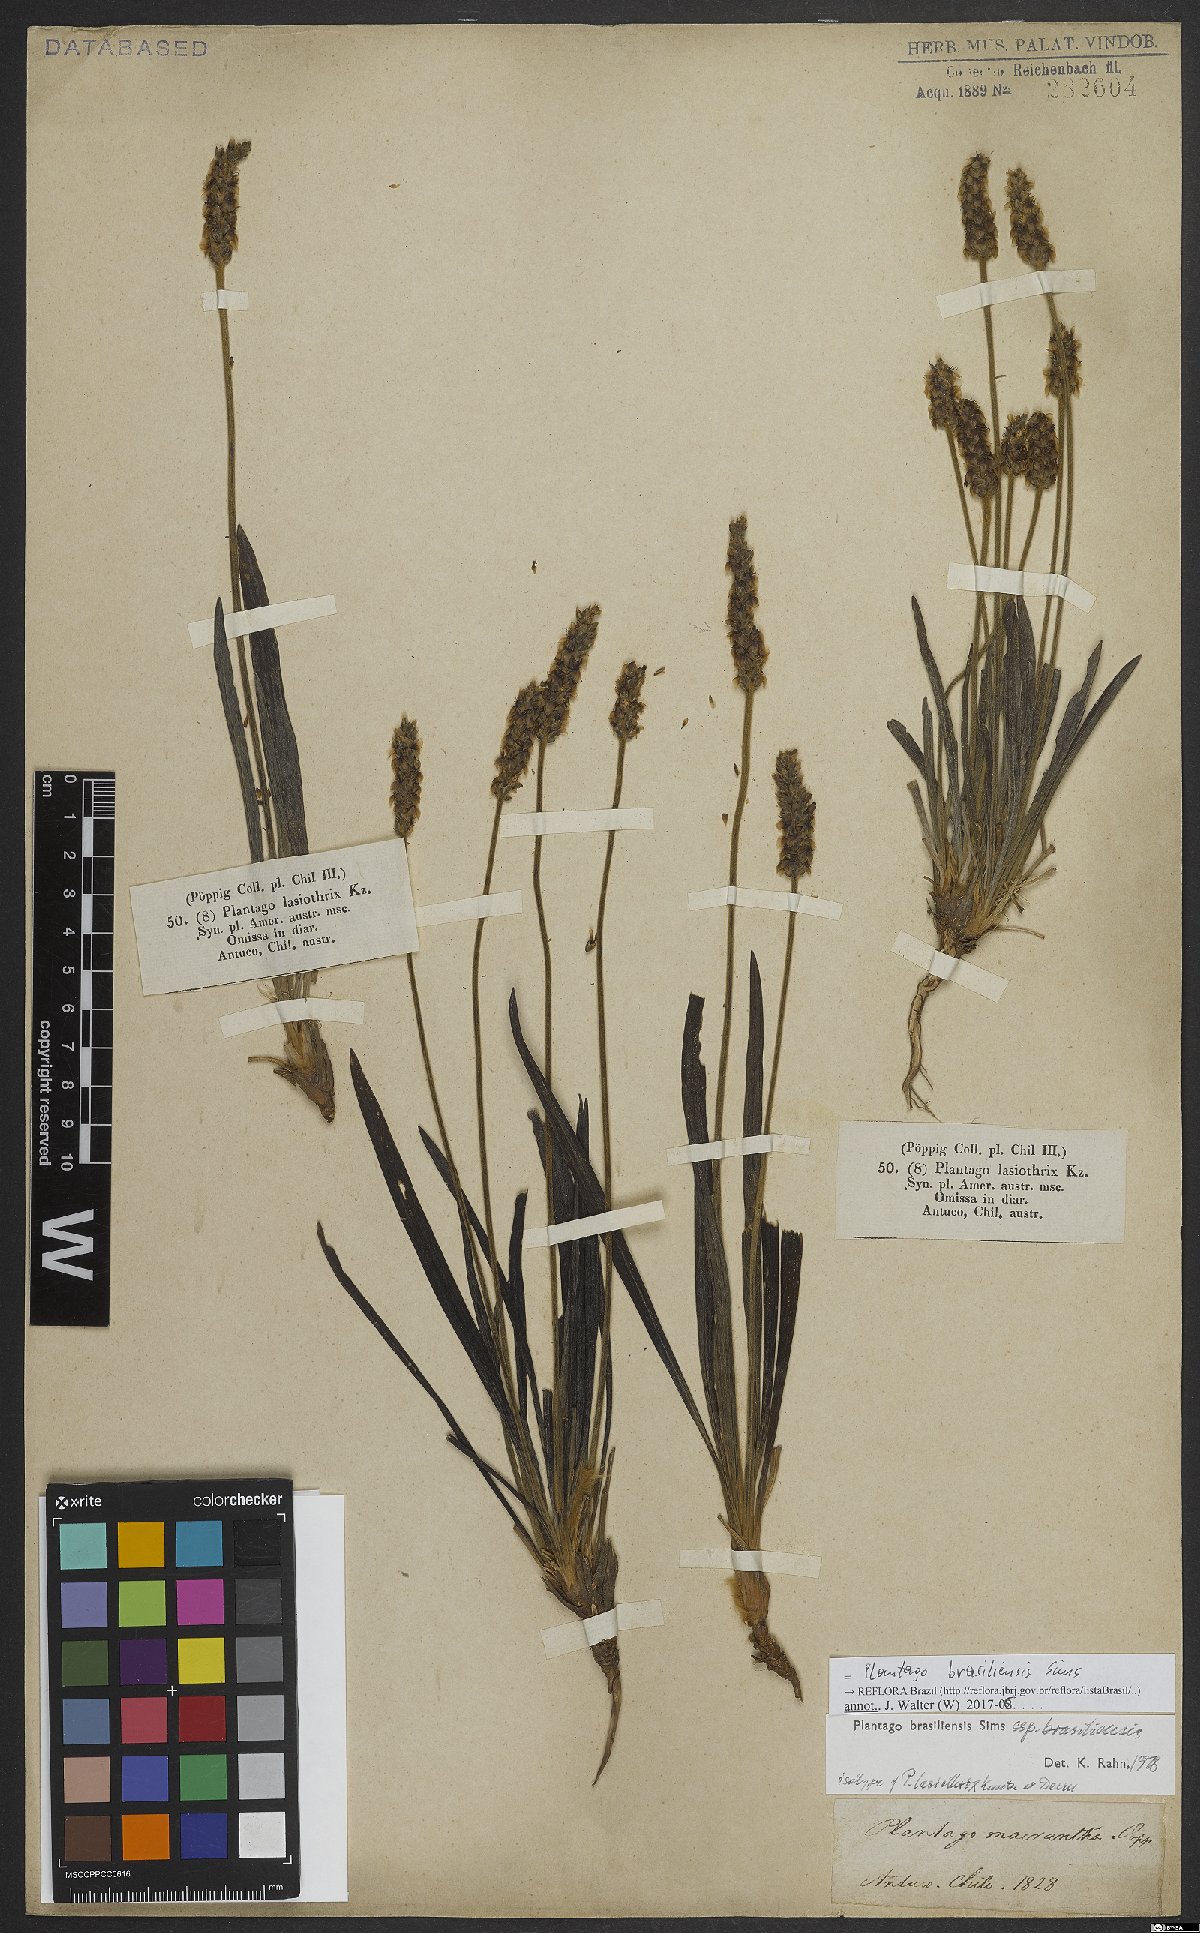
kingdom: Plantae
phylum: Tracheophyta
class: Magnoliopsida
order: Lamiales
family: Plantaginaceae
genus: Plantago
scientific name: Plantago brasiliensis
